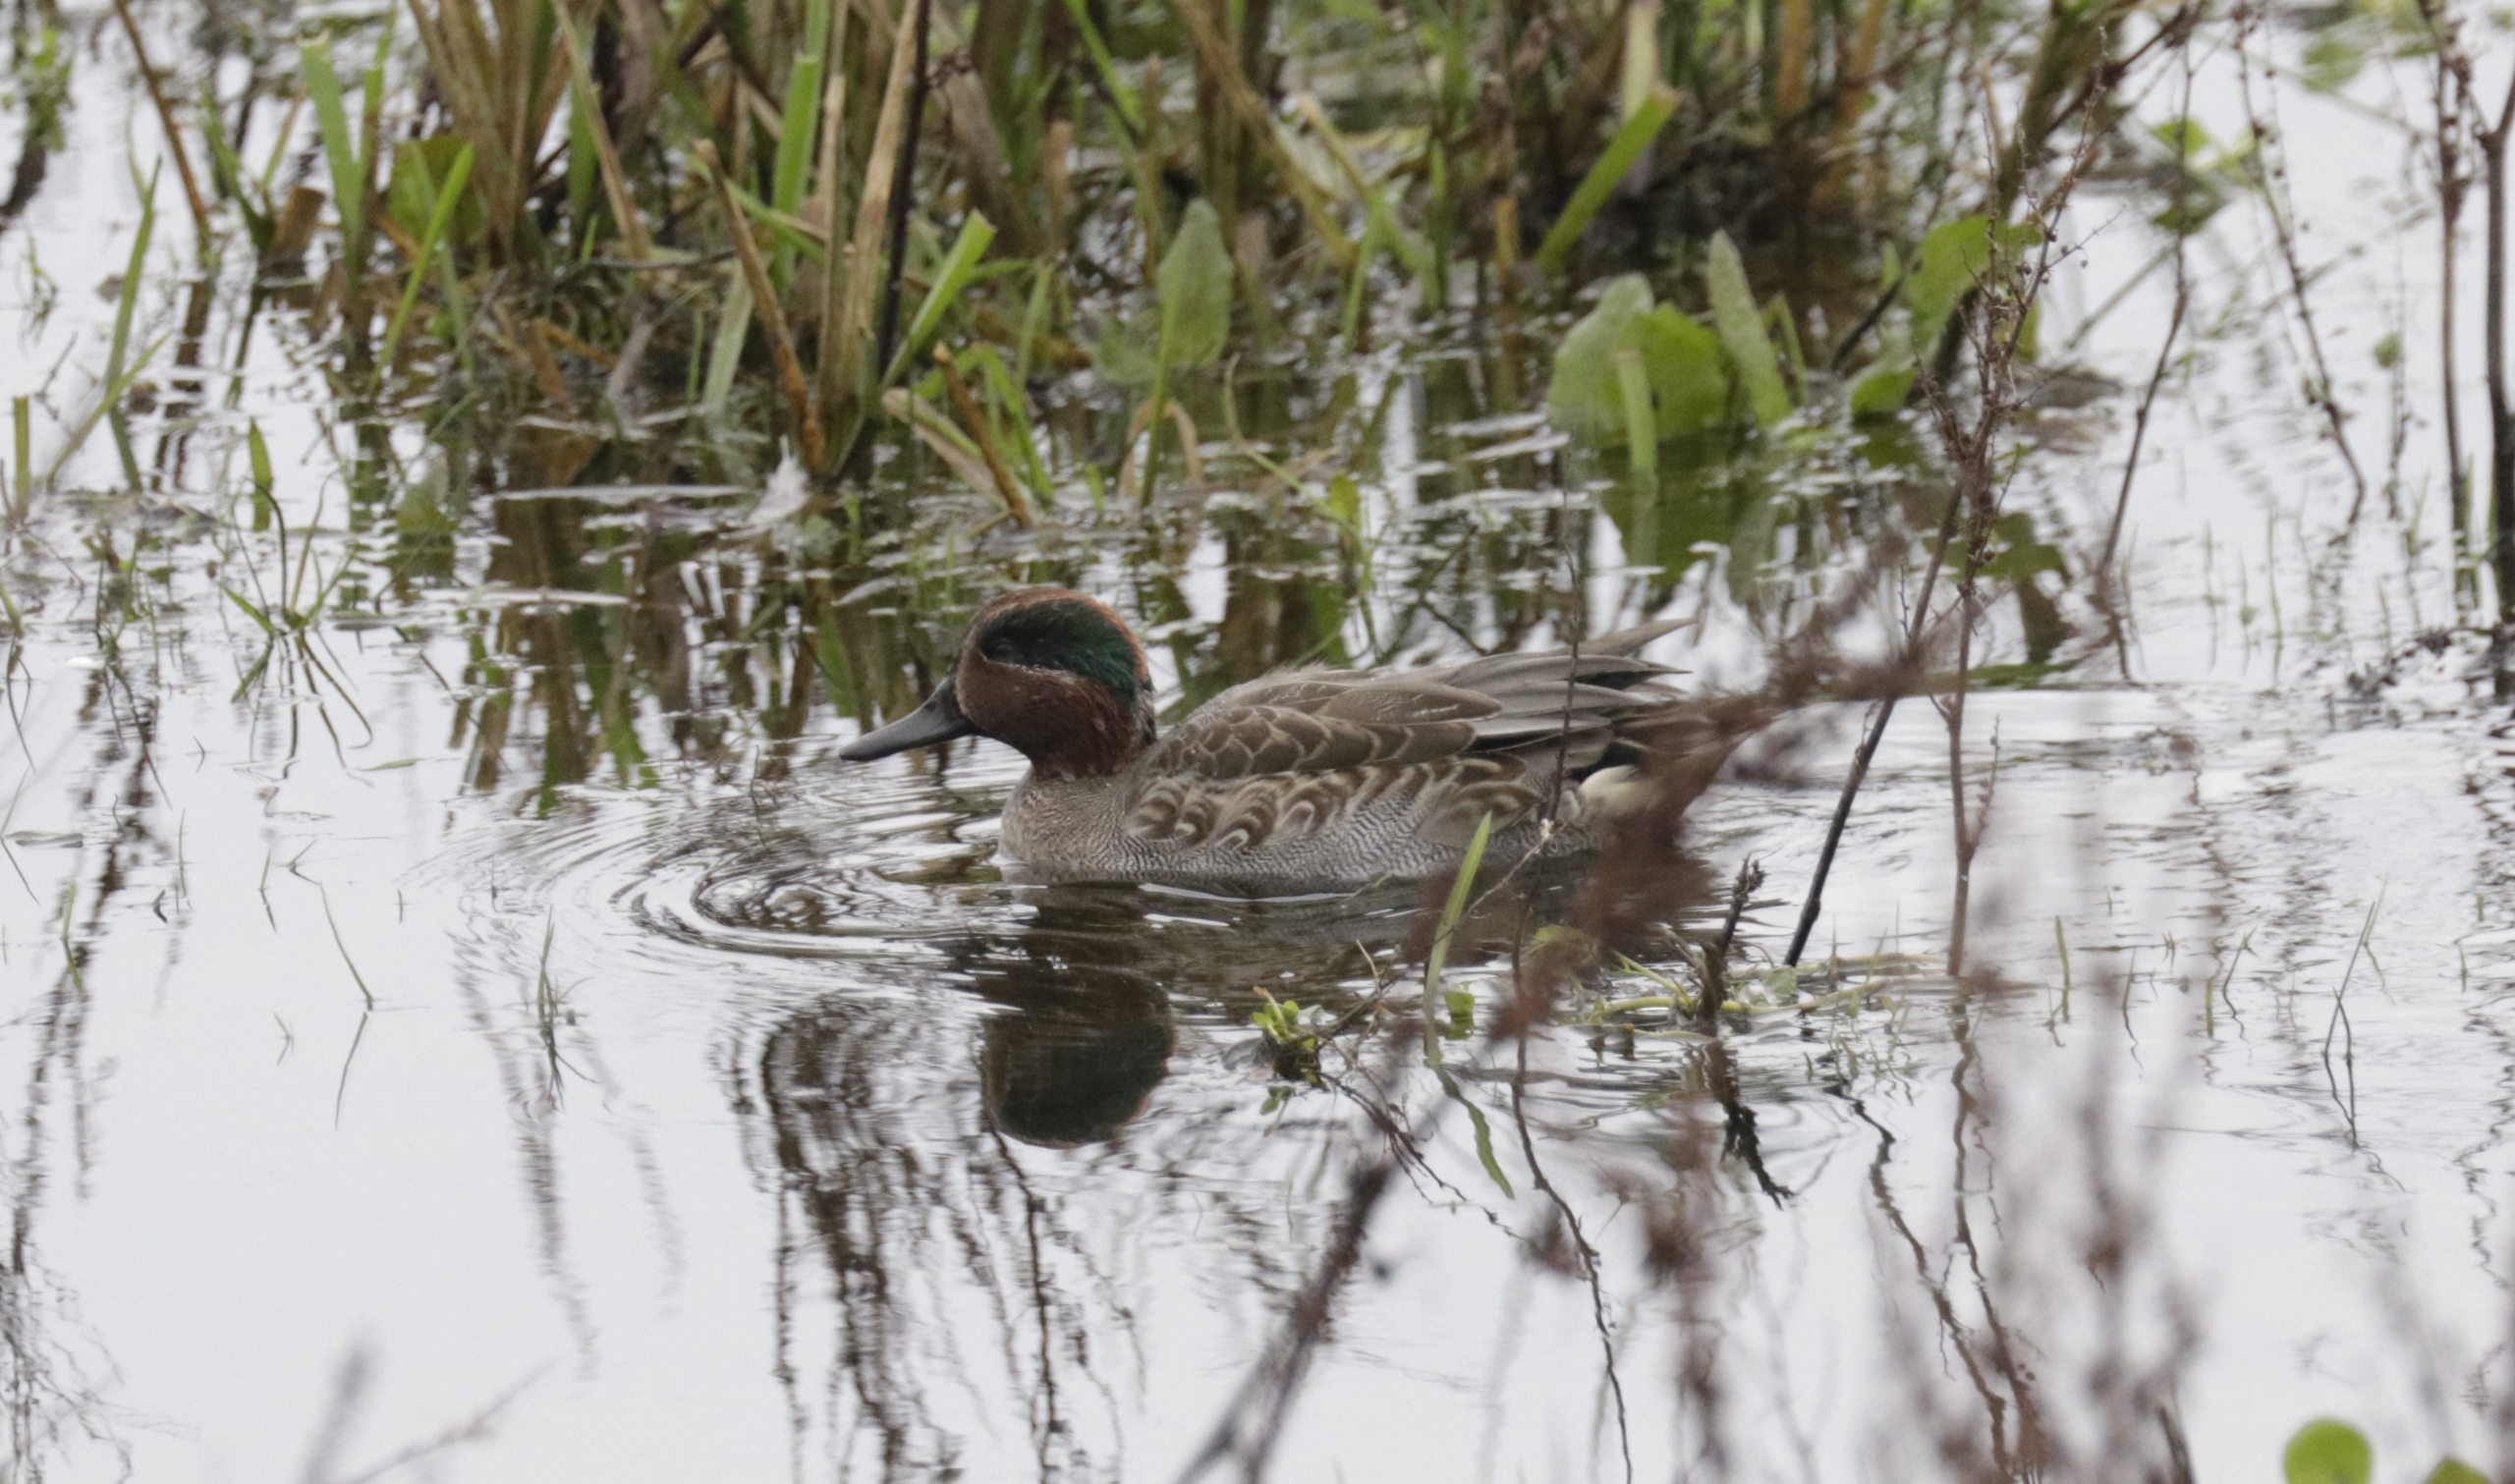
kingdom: Animalia
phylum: Chordata
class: Aves
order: Anseriformes
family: Anatidae
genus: Anas
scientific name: Anas crecca
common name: Krikand
